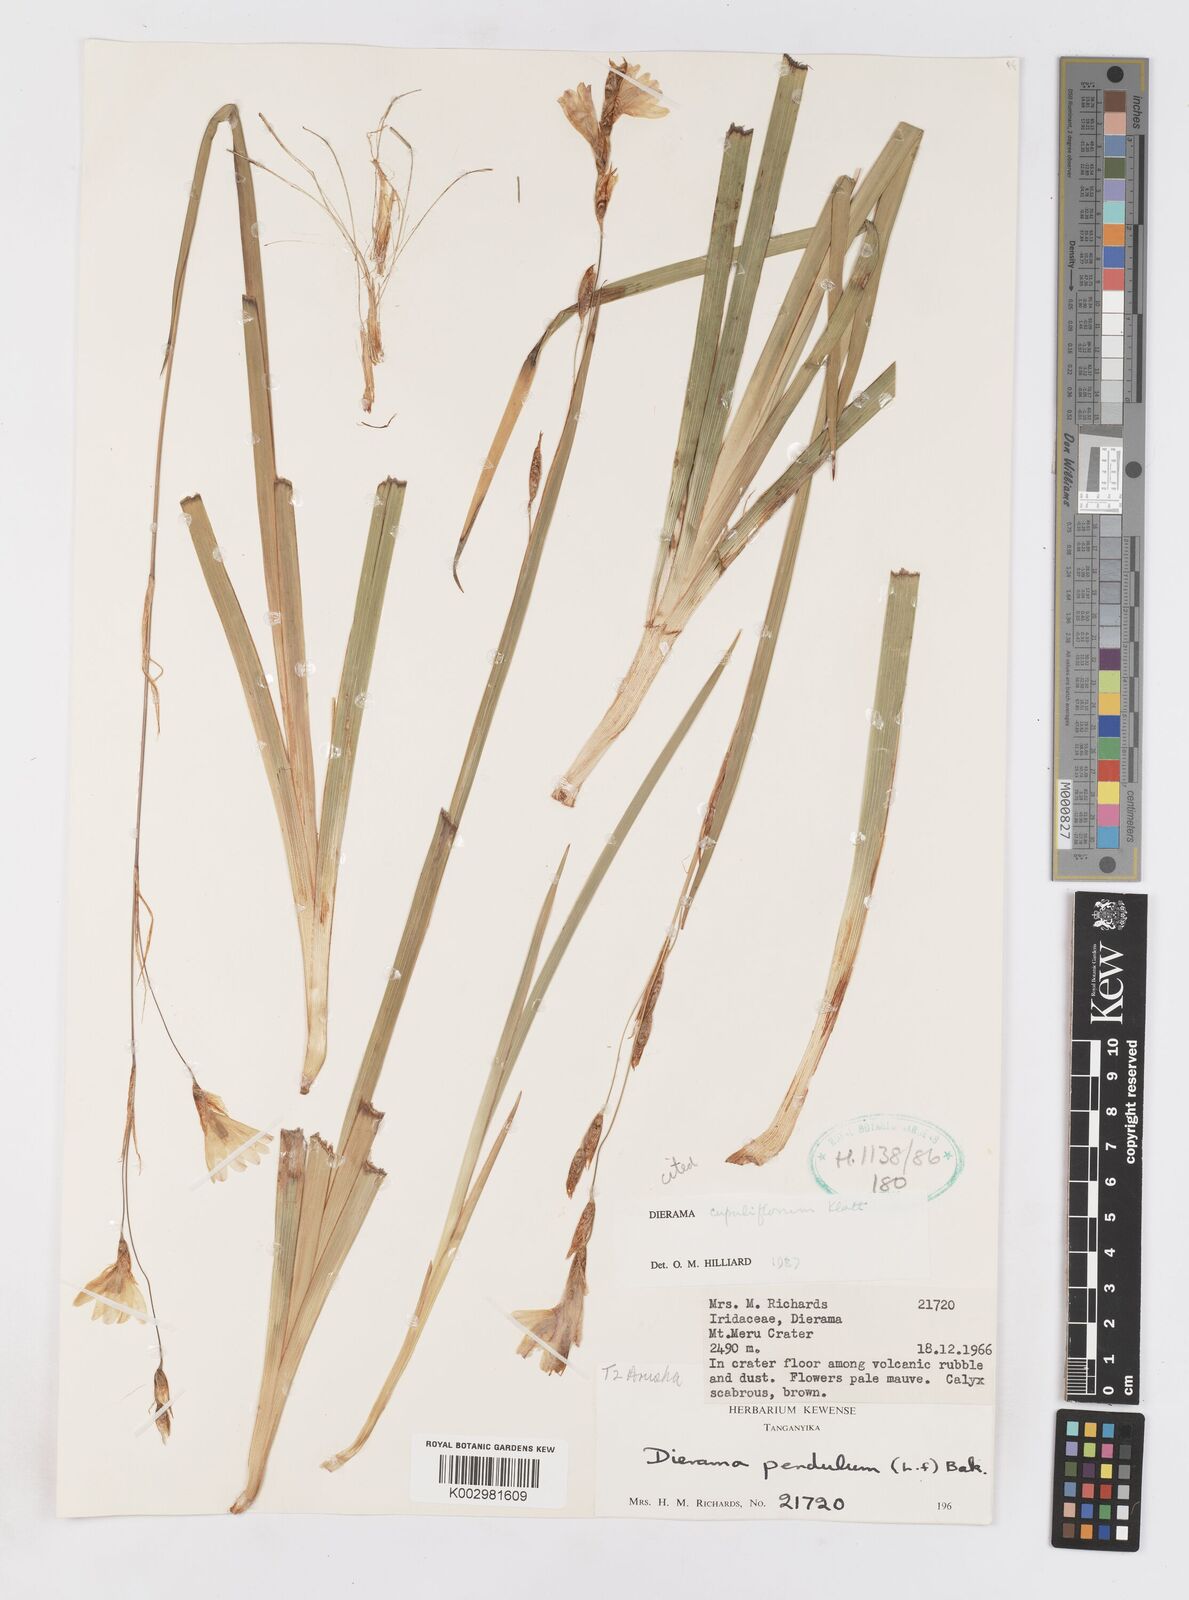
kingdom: Plantae
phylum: Tracheophyta
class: Liliopsida
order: Asparagales
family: Iridaceae
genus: Dierama
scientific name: Dierama cupuliflorum
